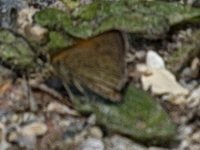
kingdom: Animalia
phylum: Arthropoda
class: Insecta
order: Lepidoptera
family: Hesperiidae
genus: Polites
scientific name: Polites themistocles
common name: Tawny-edged Skipper
